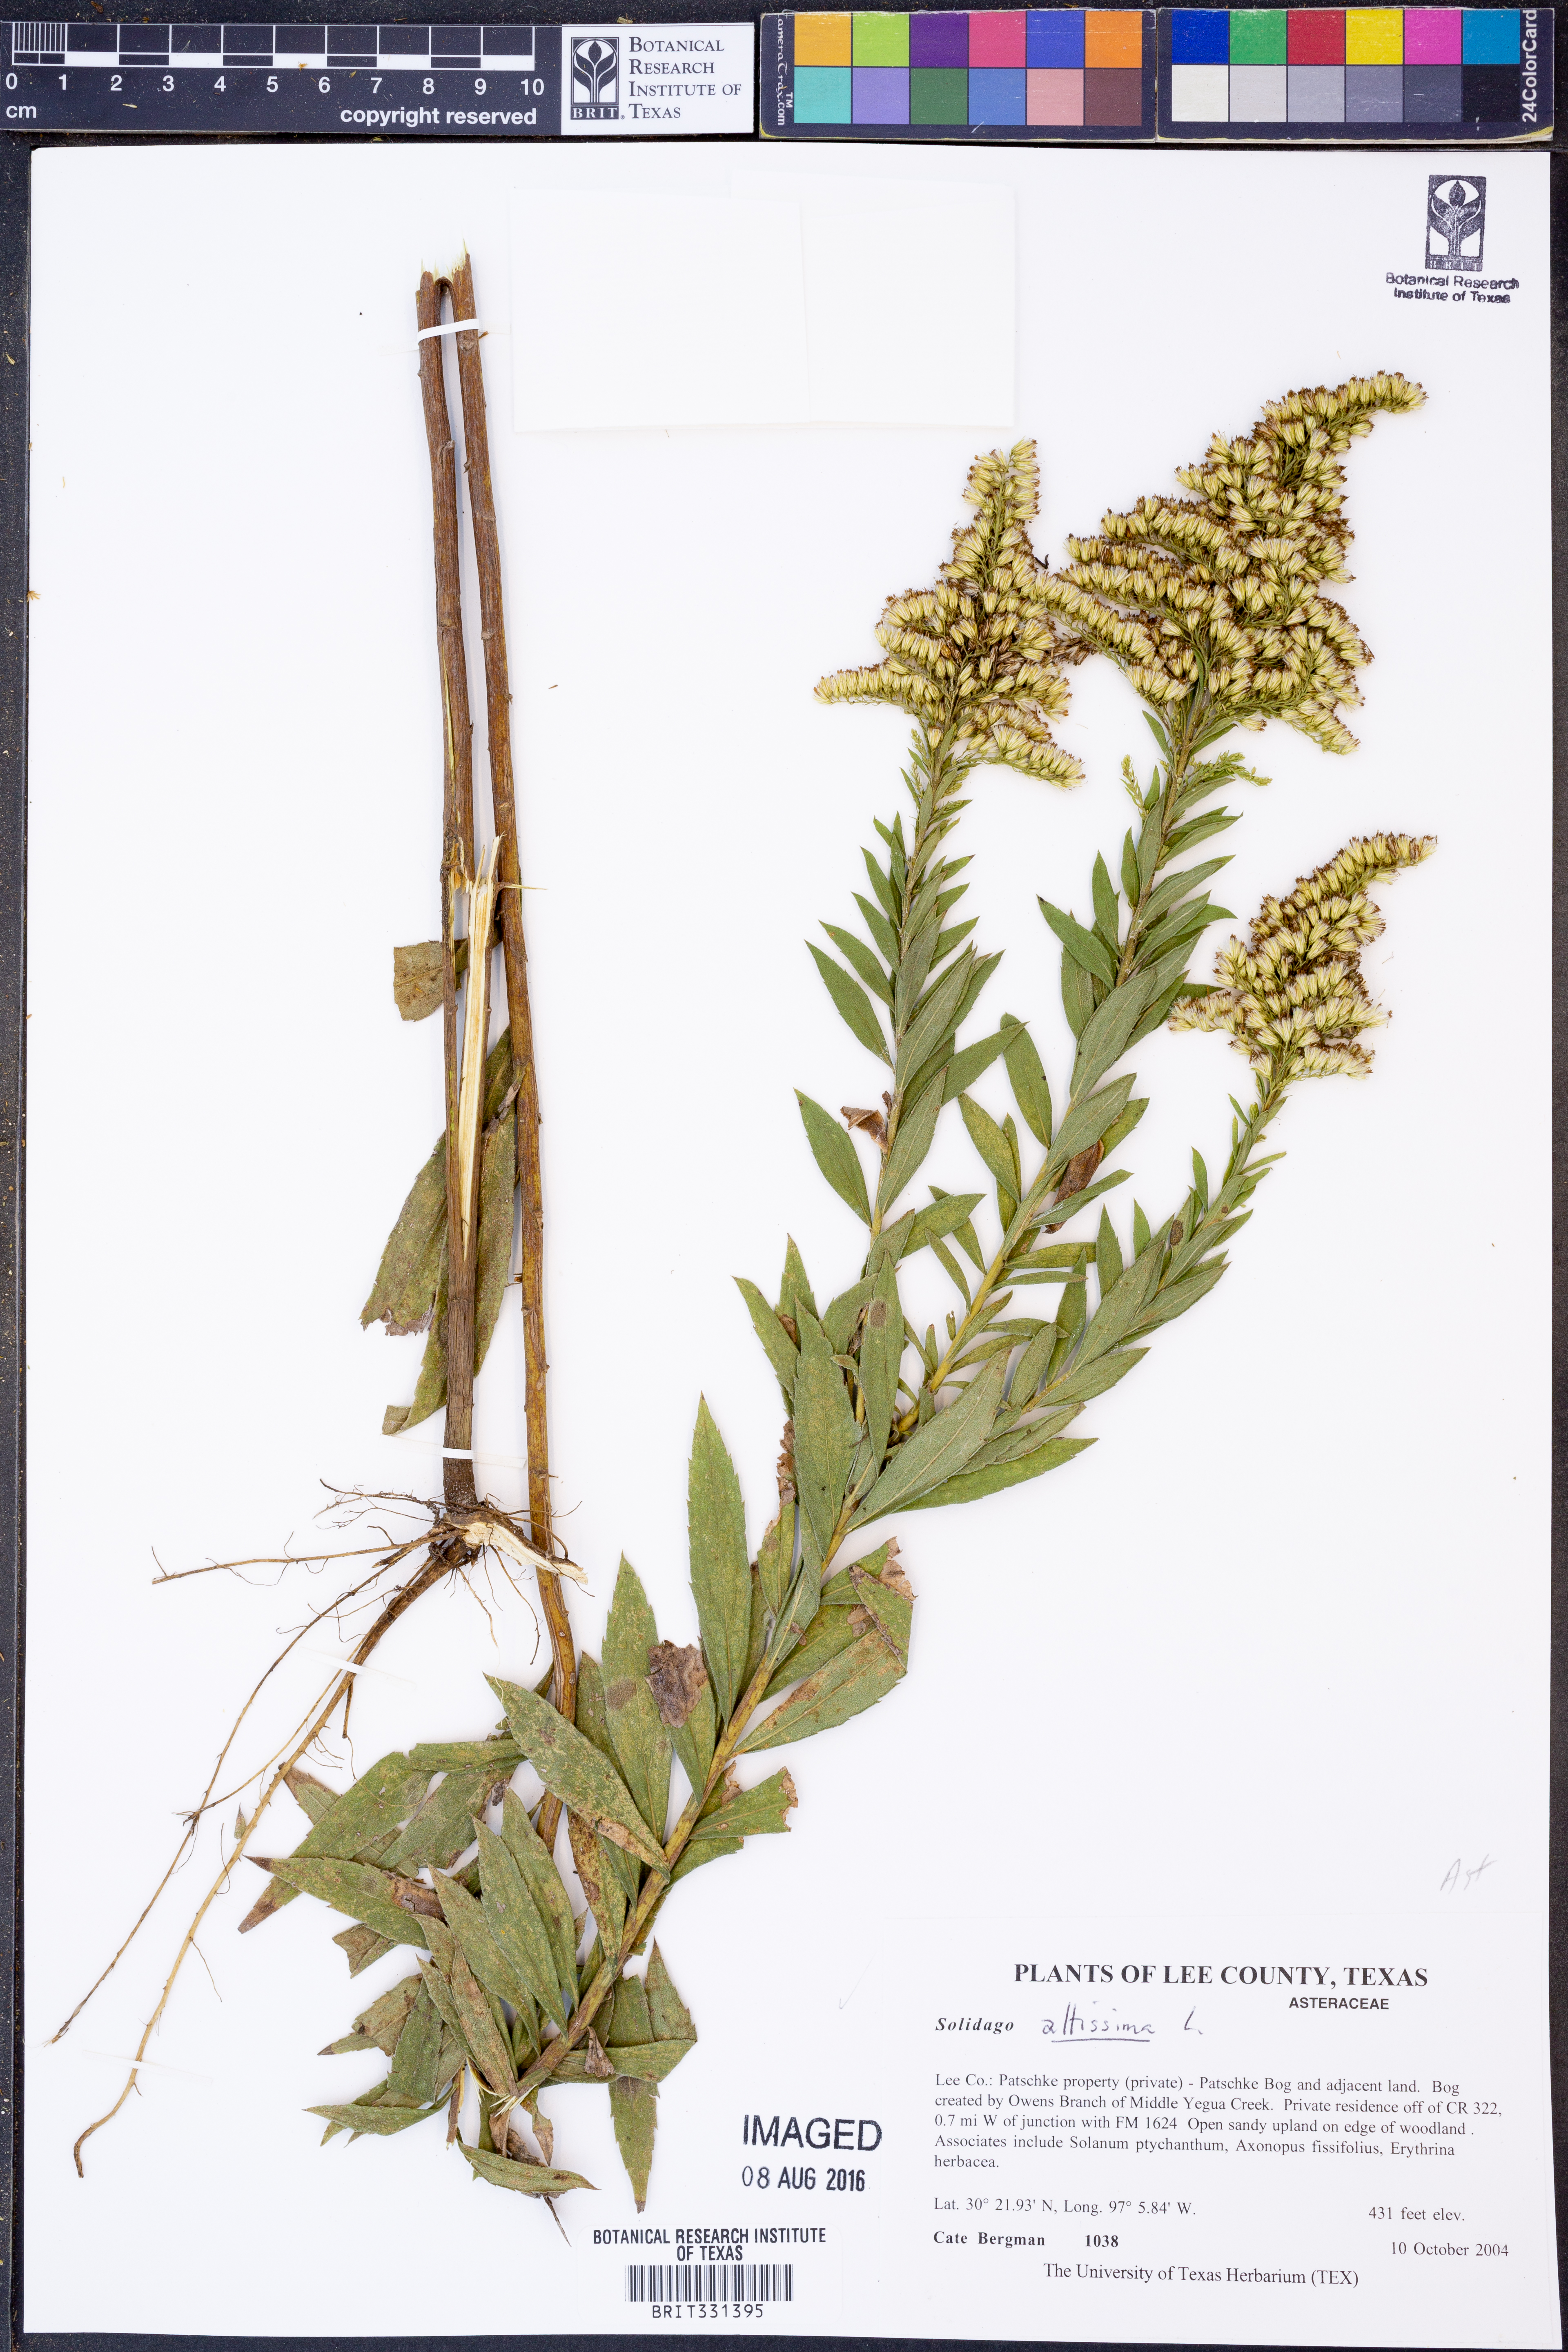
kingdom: Plantae
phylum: Tracheophyta
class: Magnoliopsida
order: Asterales
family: Asteraceae
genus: Solidago
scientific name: Solidago altissima
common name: Late goldenrod
